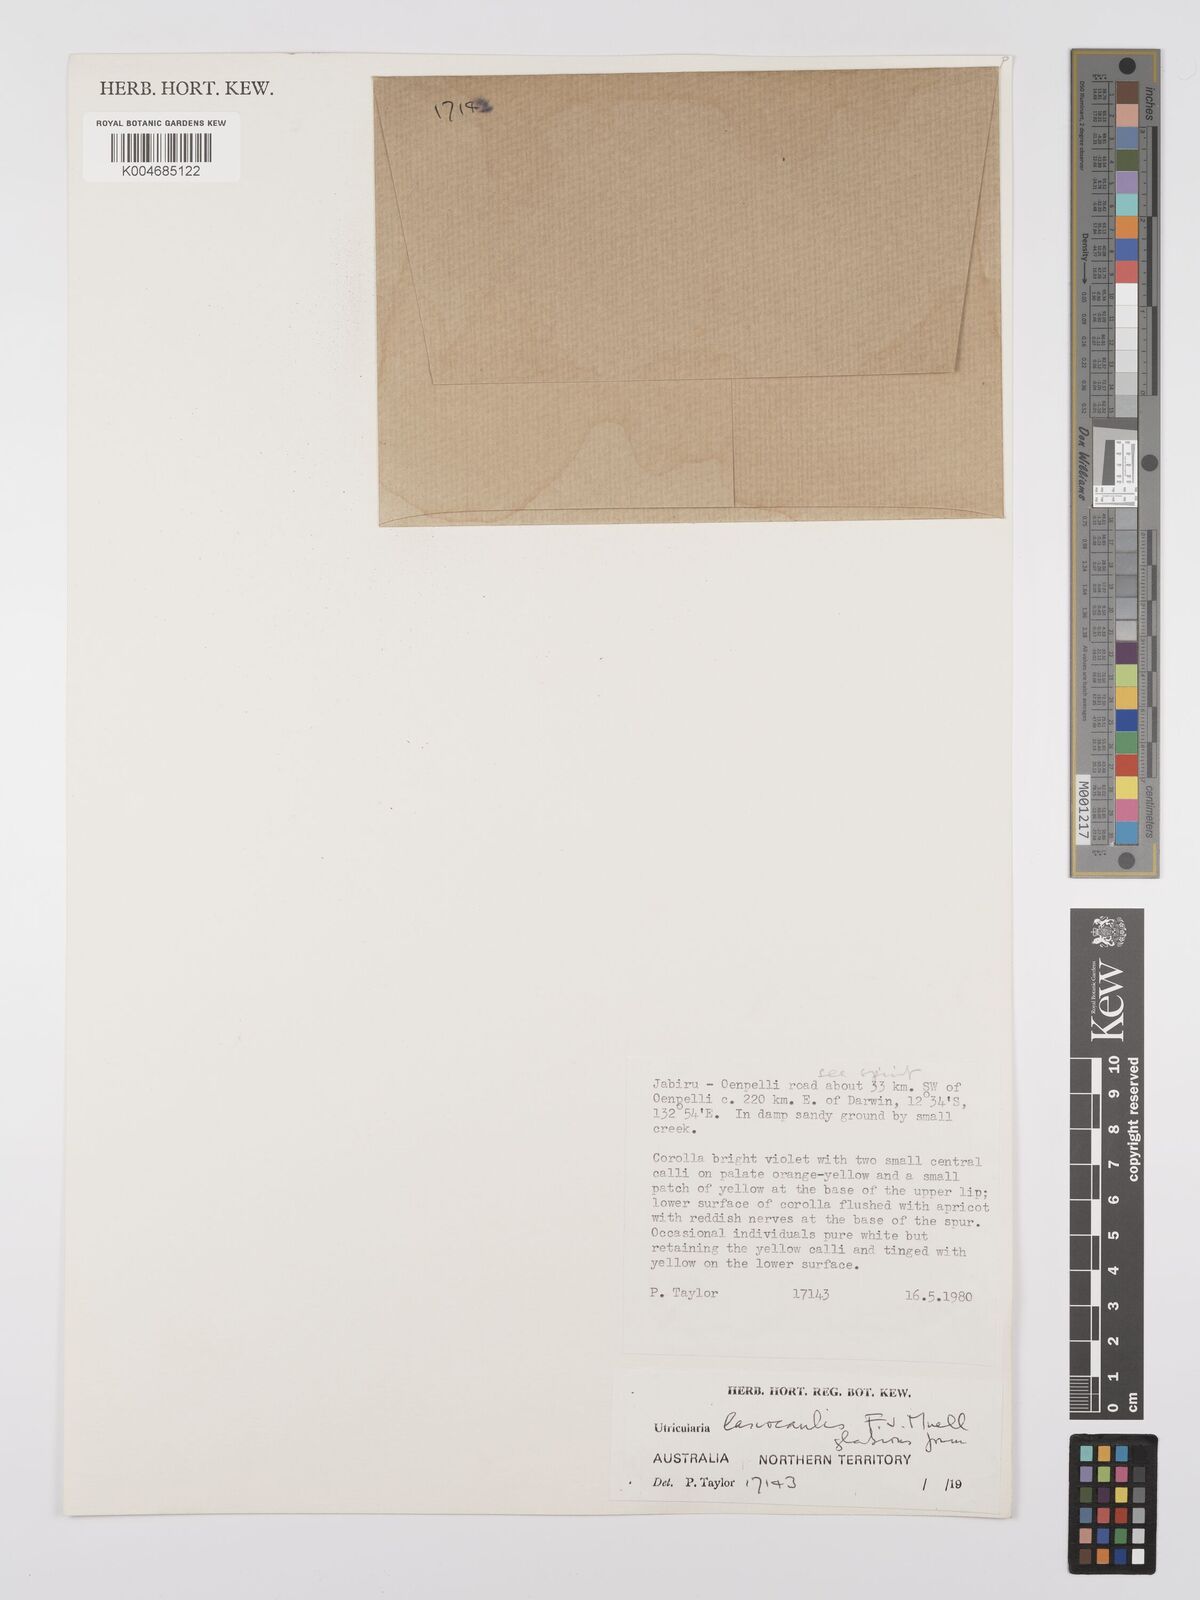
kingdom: Plantae
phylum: Tracheophyta
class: Magnoliopsida
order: Lamiales
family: Lentibulariaceae
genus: Utricularia
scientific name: Utricularia lasiocaulis
